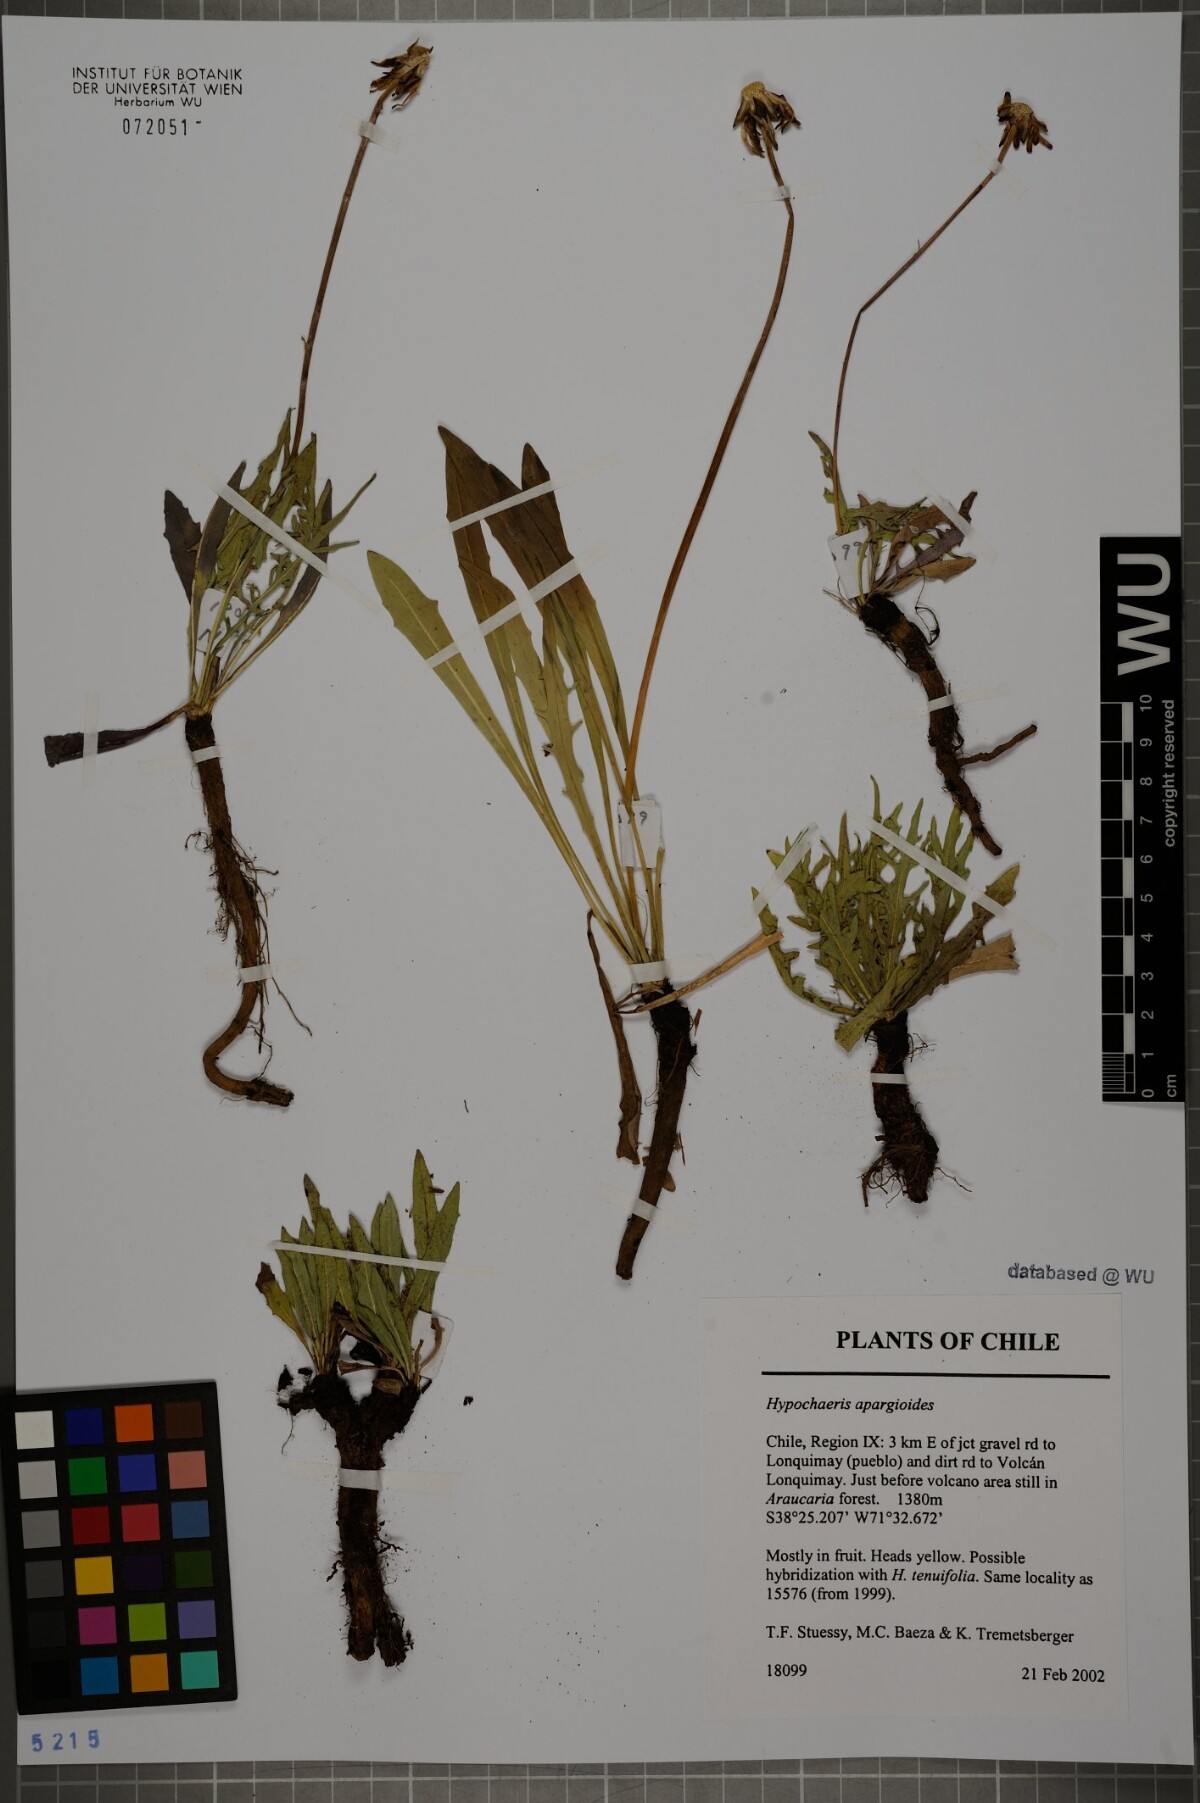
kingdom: Plantae
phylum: Tracheophyta
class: Magnoliopsida
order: Asterales
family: Asteraceae
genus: Hypochaeris
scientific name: Hypochaeris apargioides
